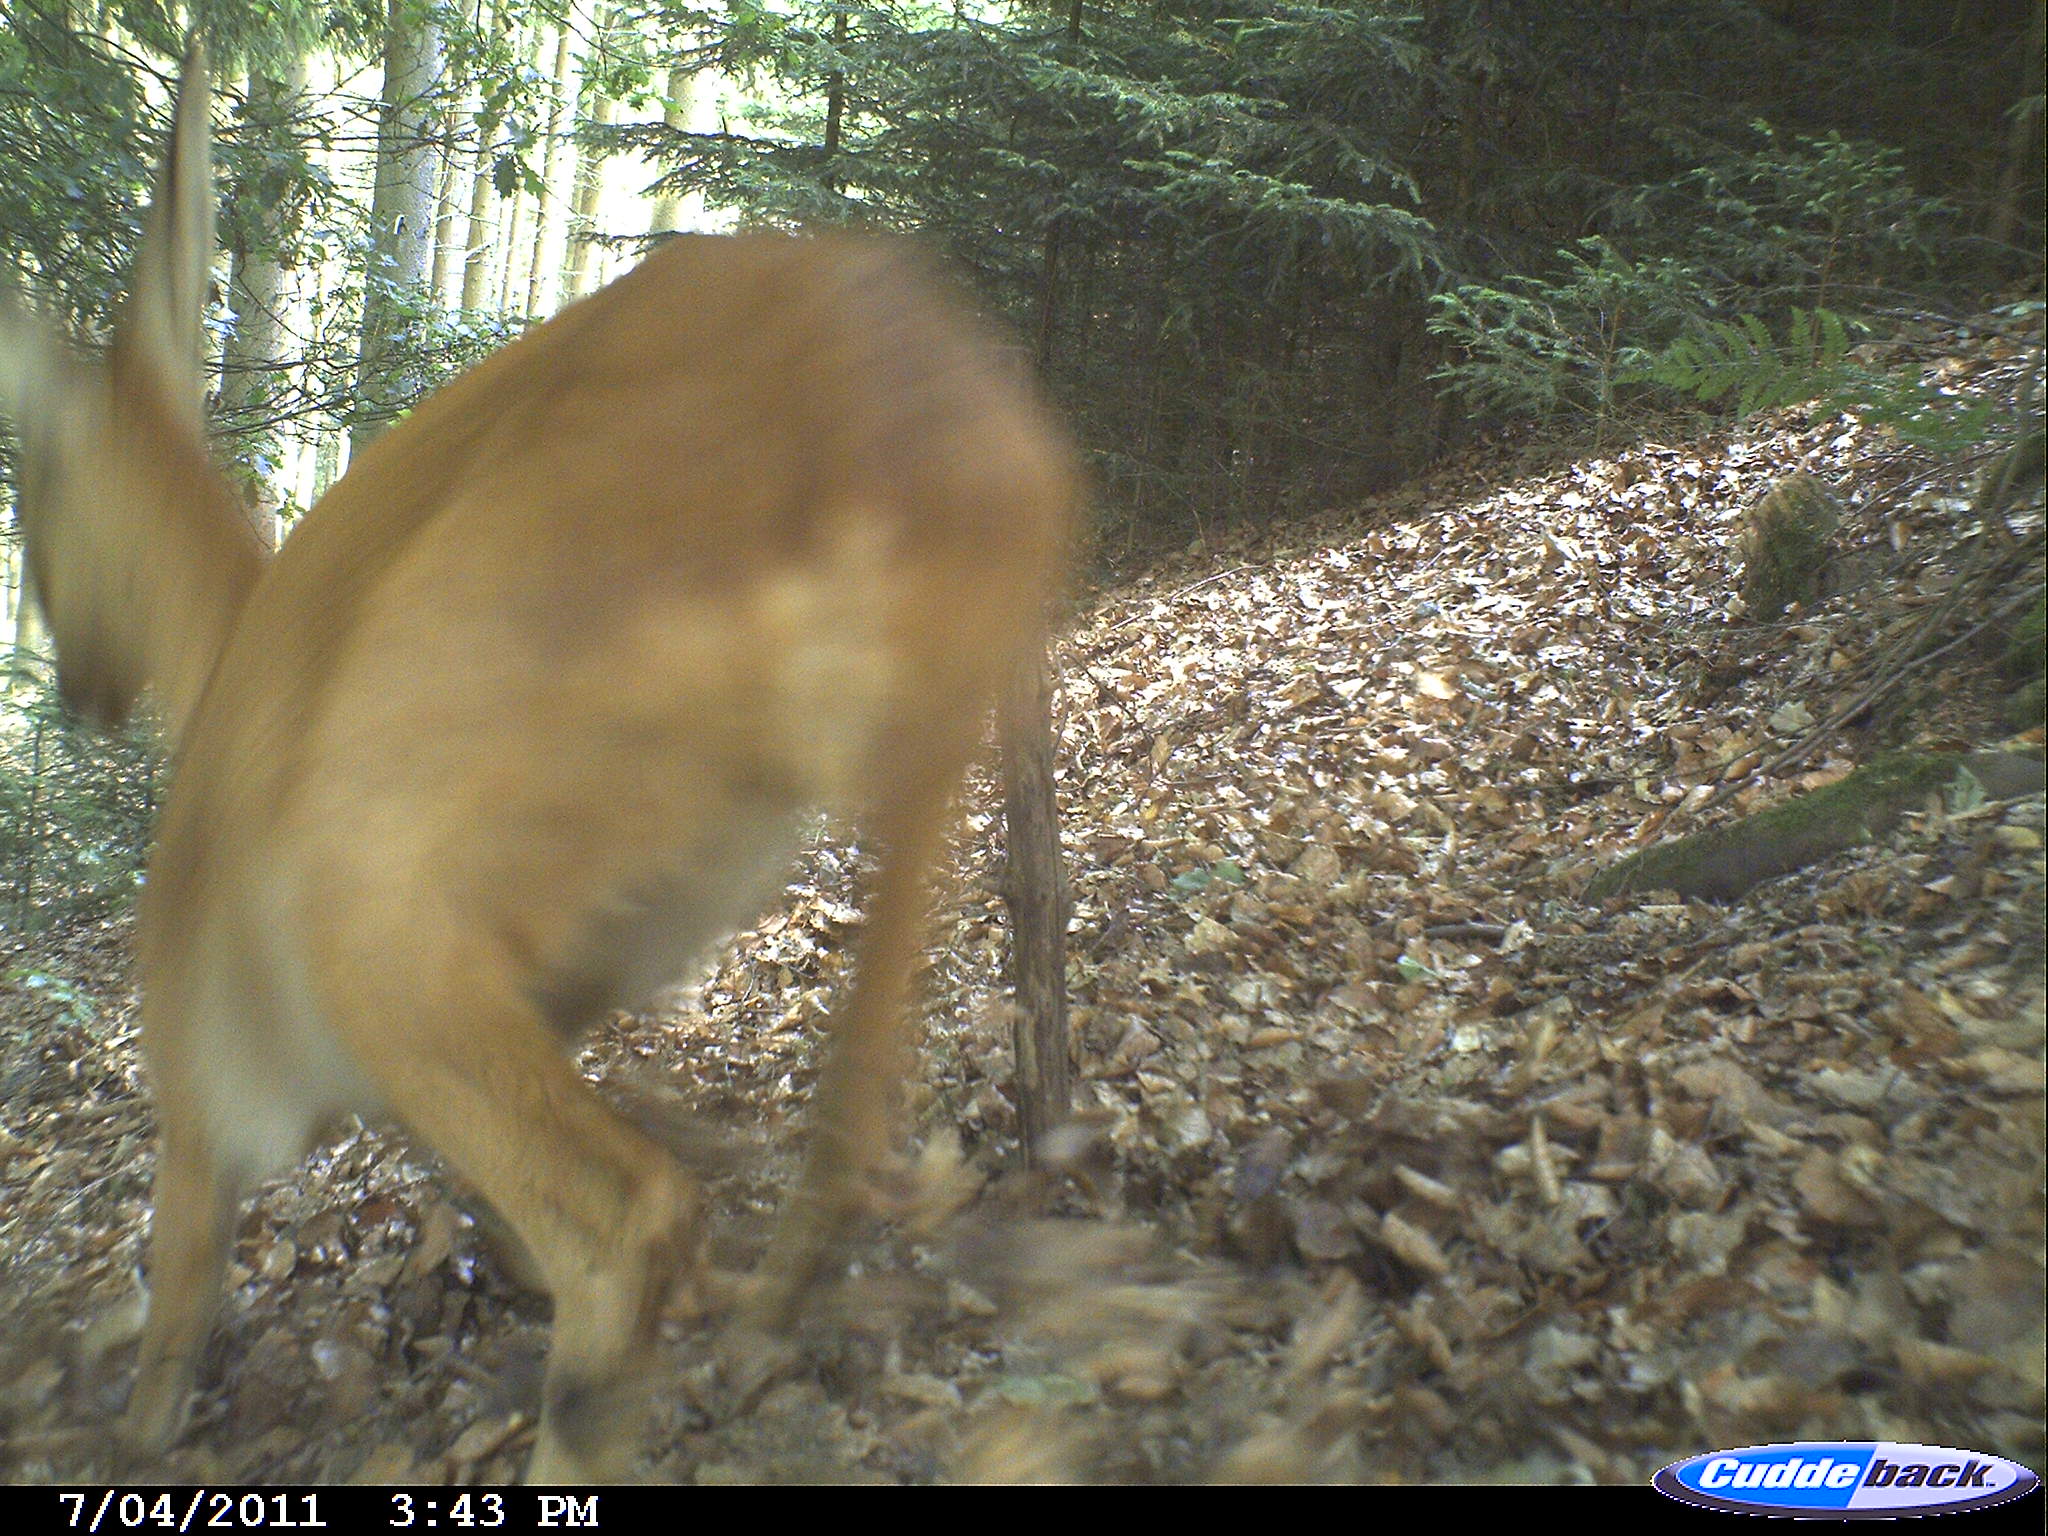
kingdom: Animalia
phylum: Chordata
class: Mammalia
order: Artiodactyla
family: Cervidae
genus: Capreolus
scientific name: Capreolus capreolus
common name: Western roe deer
